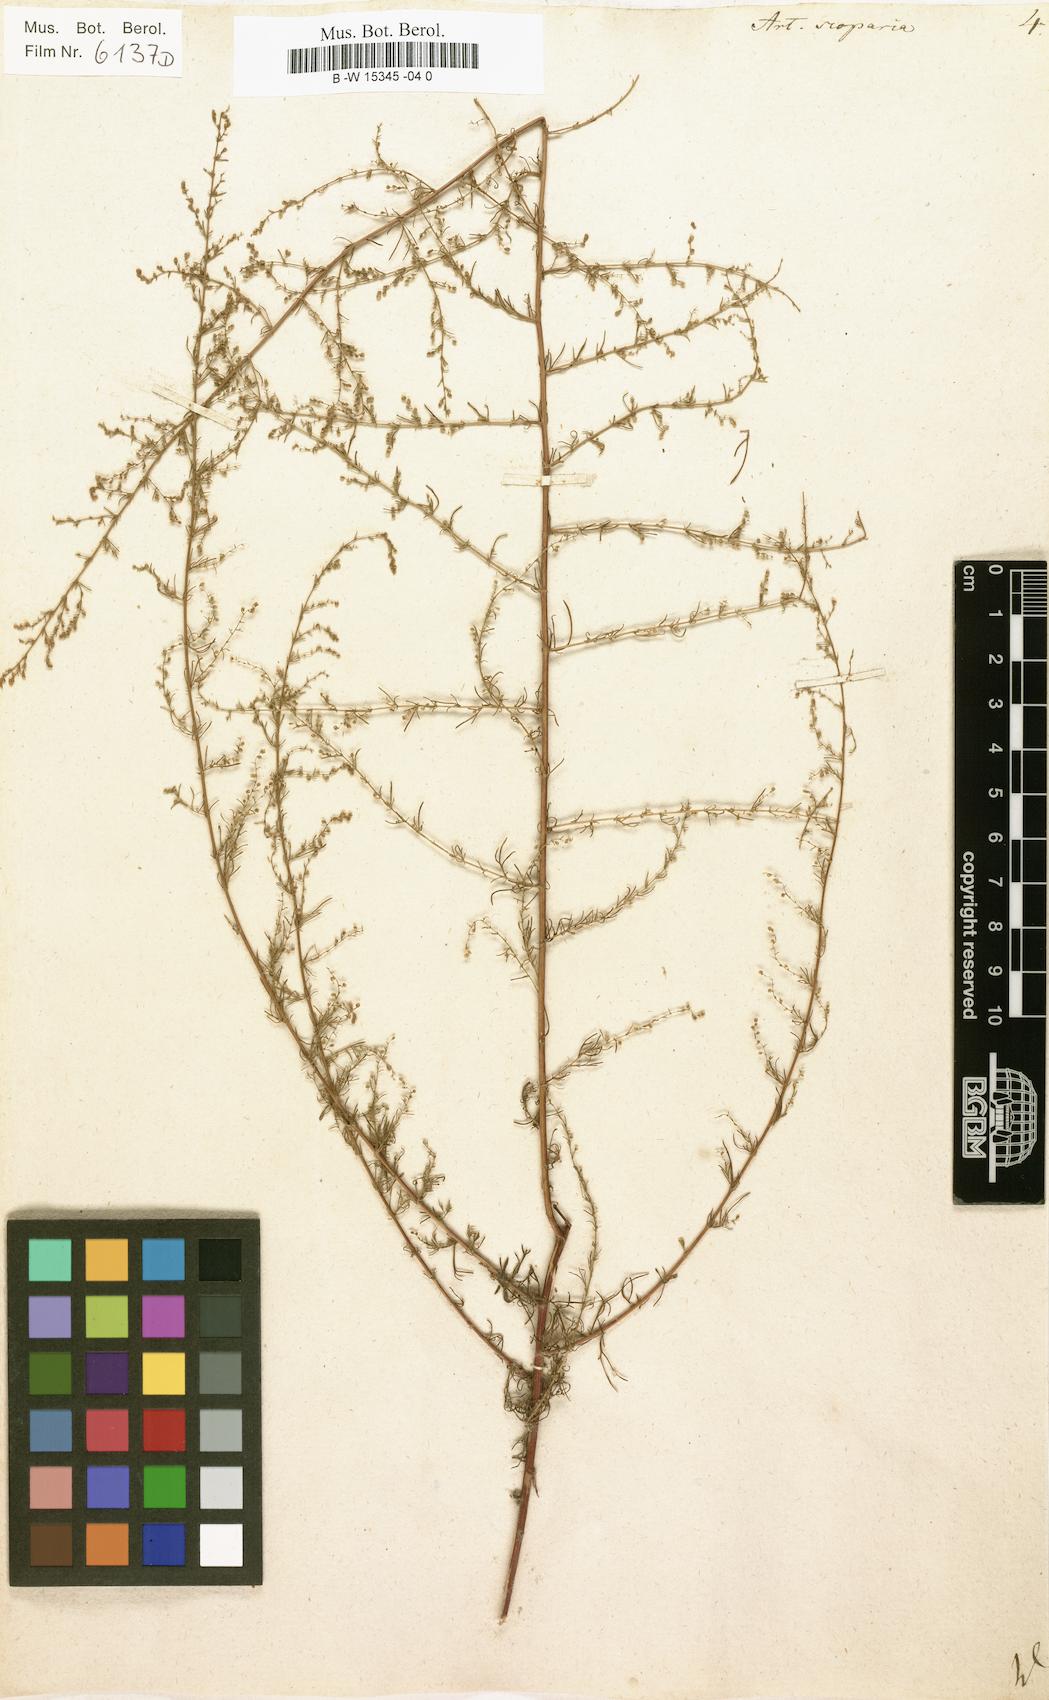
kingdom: Plantae
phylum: Tracheophyta
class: Magnoliopsida
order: Asterales
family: Asteraceae
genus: Artemisia
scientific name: Artemisia scoparia
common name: Redstem wormwood
